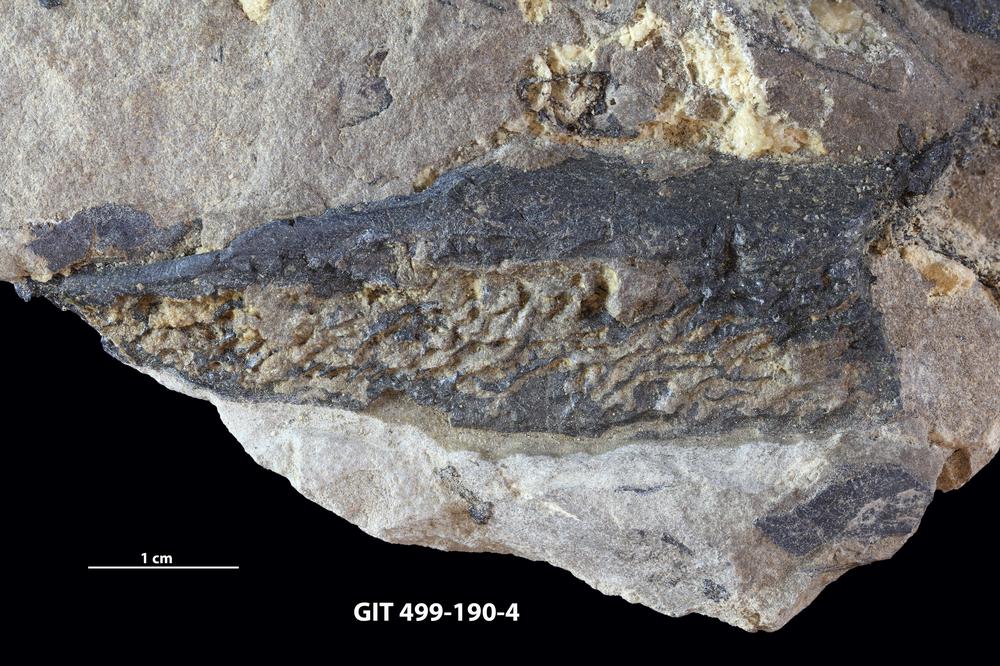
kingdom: Animalia
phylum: Chordata
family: Holoptychiidae
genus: Glyptolepis
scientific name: Glyptolepis
